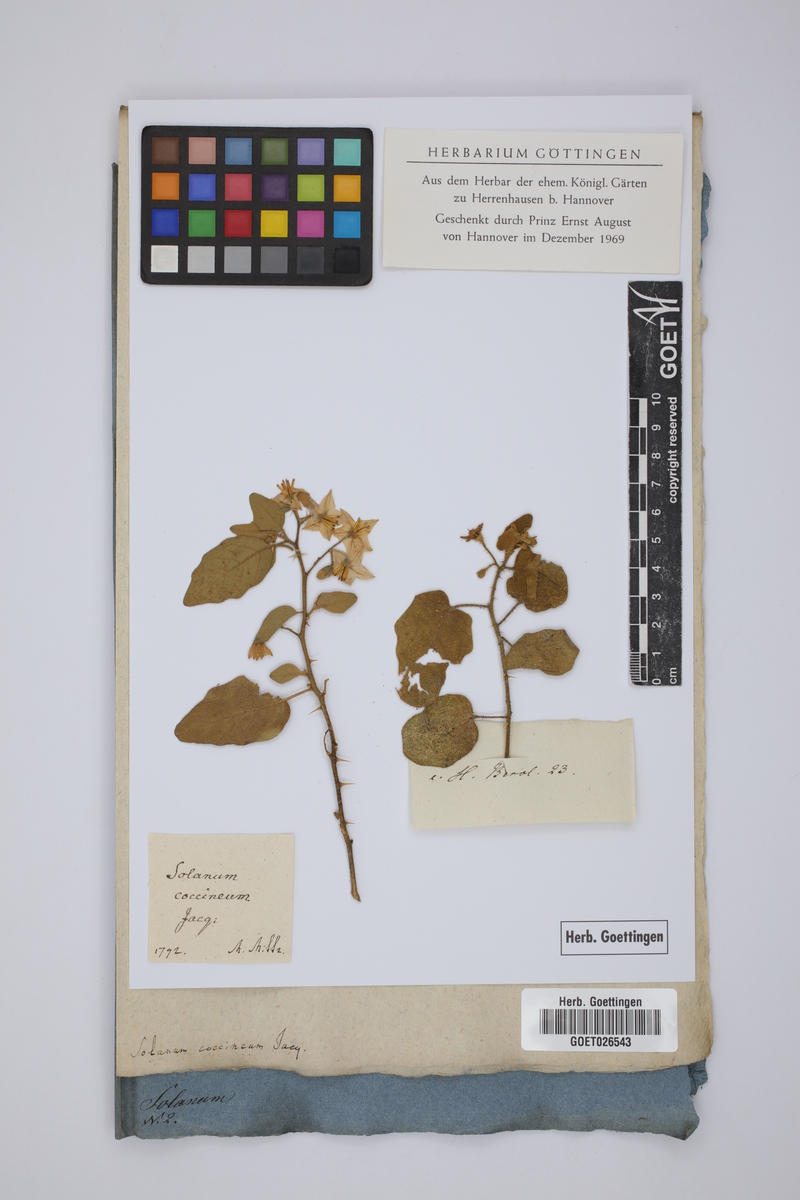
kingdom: Plantae
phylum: Tracheophyta
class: Magnoliopsida
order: Solanales
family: Solanaceae
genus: Solanum
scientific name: Solanum tomentosum
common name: Wild aubergine
